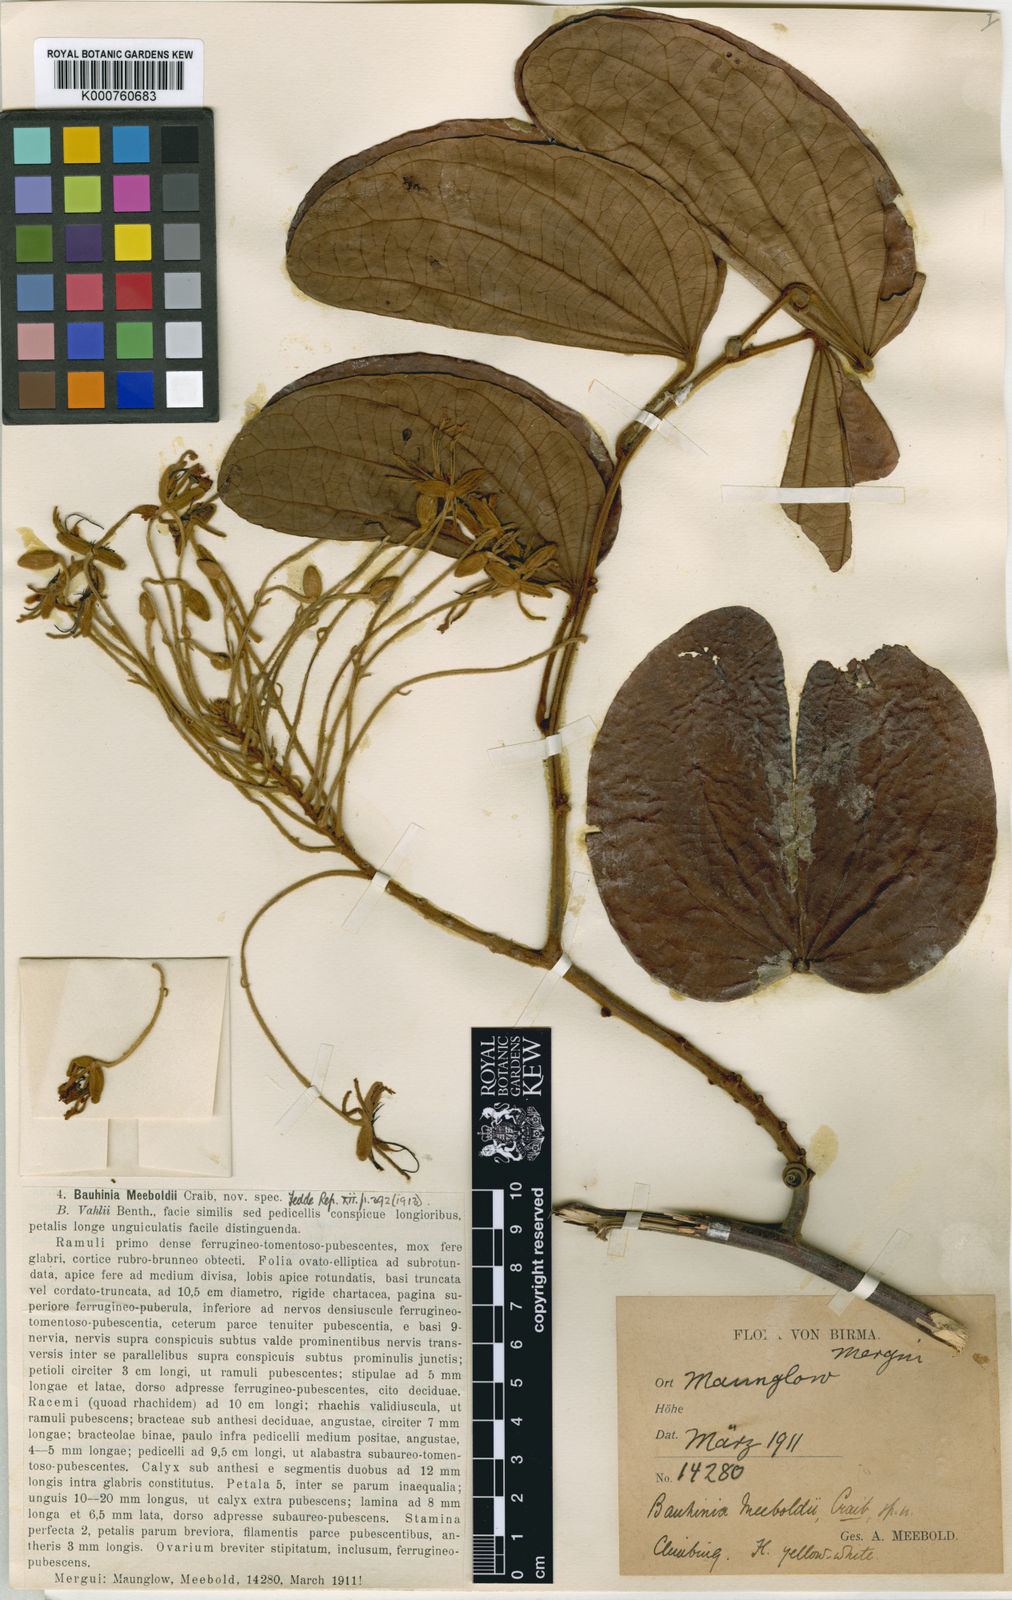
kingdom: Plantae
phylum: Tracheophyta
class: Magnoliopsida
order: Fabales
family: Fabaceae
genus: Phanera
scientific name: Phanera meeboldii
